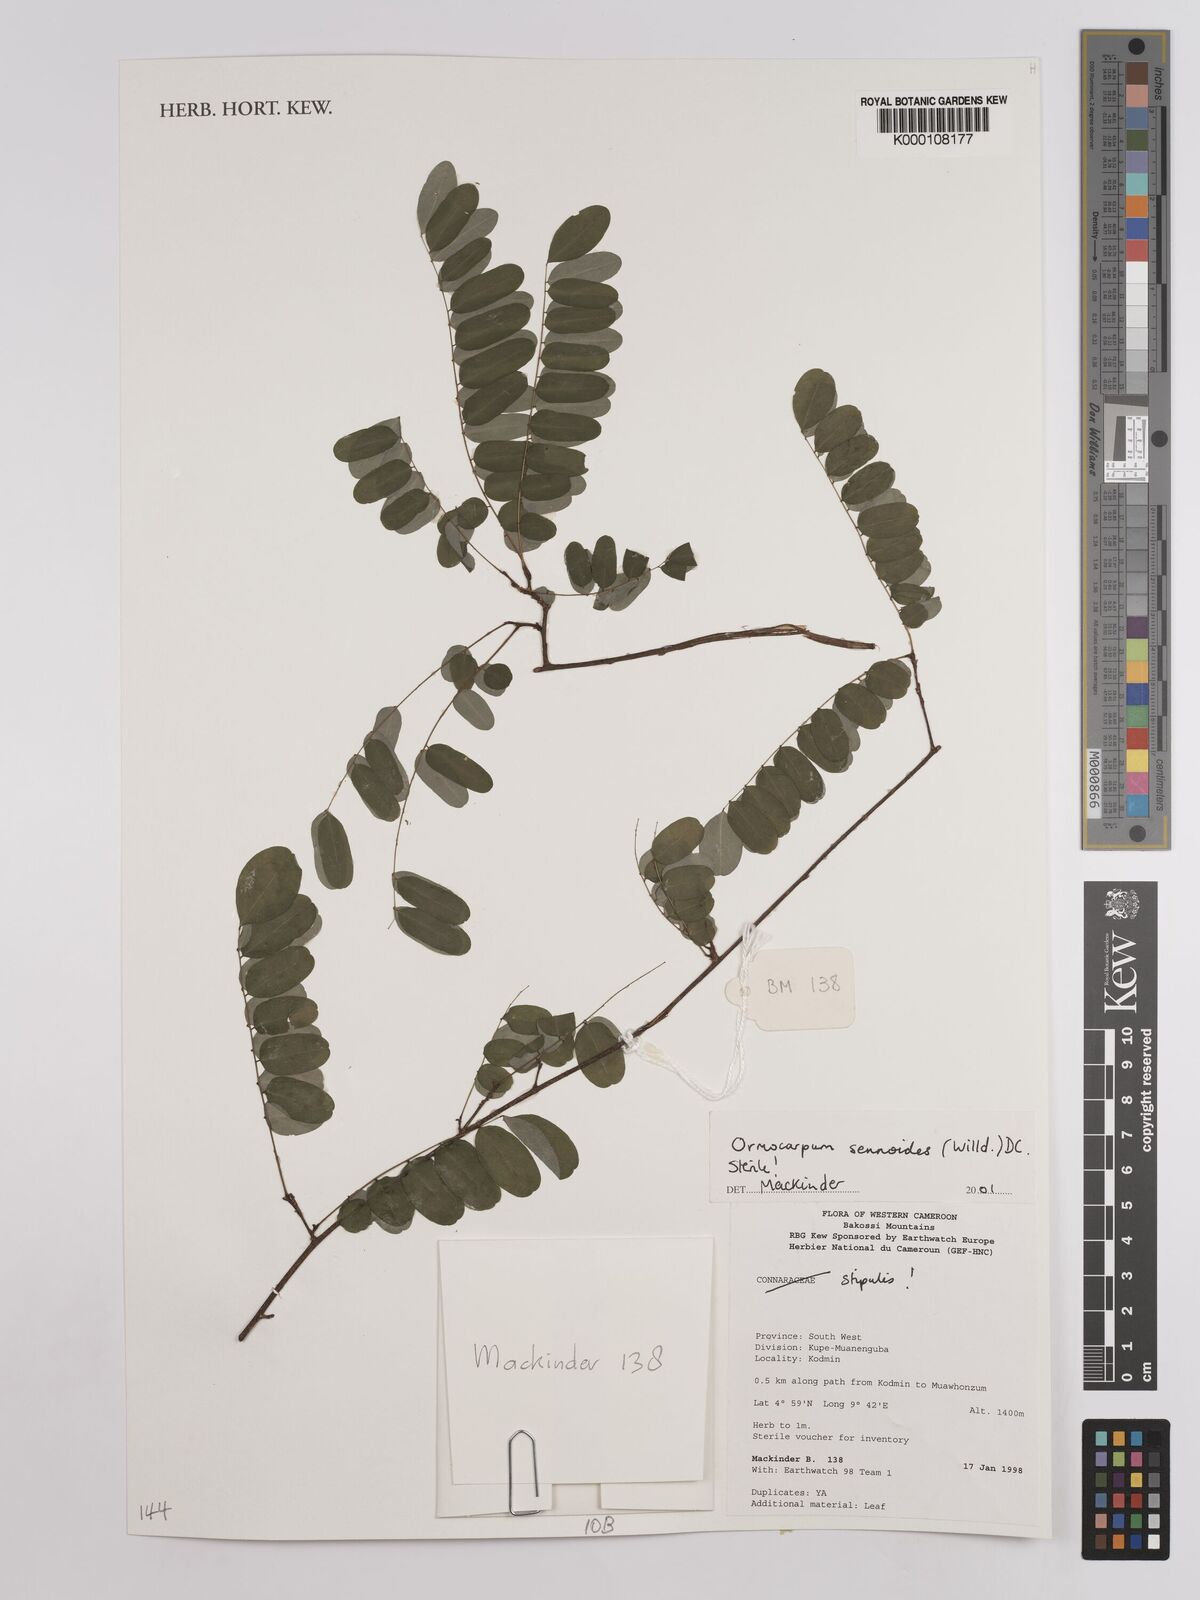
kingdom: Plantae
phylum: Tracheophyta
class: Magnoliopsida
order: Fabales
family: Fabaceae
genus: Ormocarpum
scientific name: Ormocarpum sennoides
